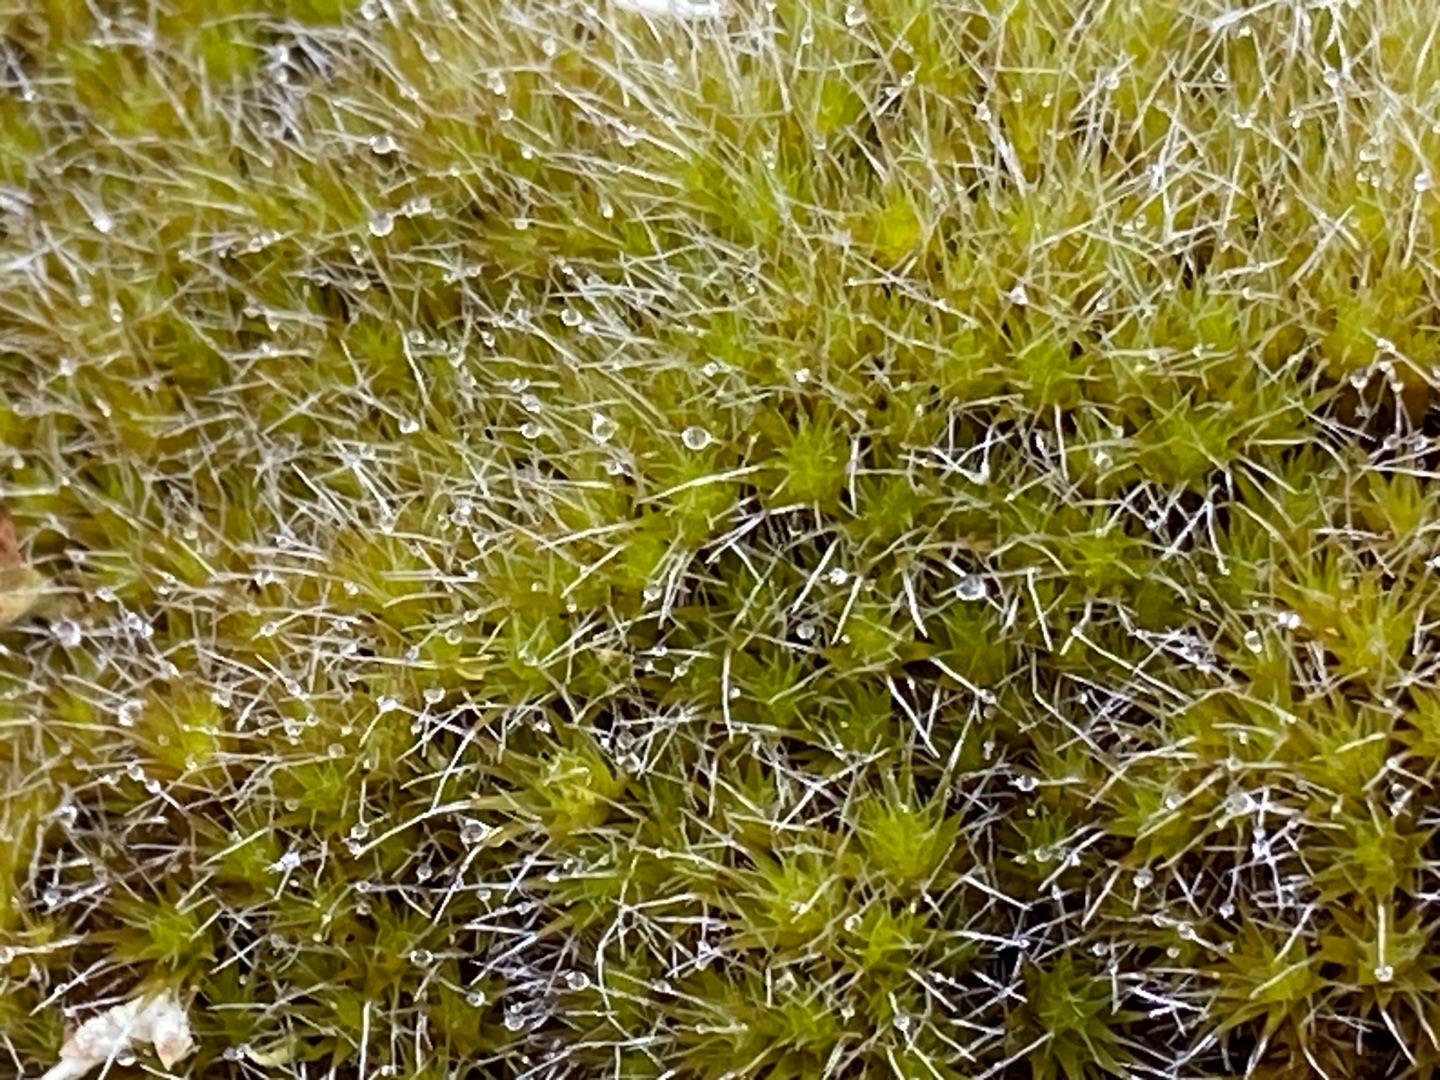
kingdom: Plantae
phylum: Bryophyta
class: Bryopsida
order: Dicranales
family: Leucobryaceae
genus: Campylopus
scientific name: Campylopus introflexus
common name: Stjerne-bredribbe
